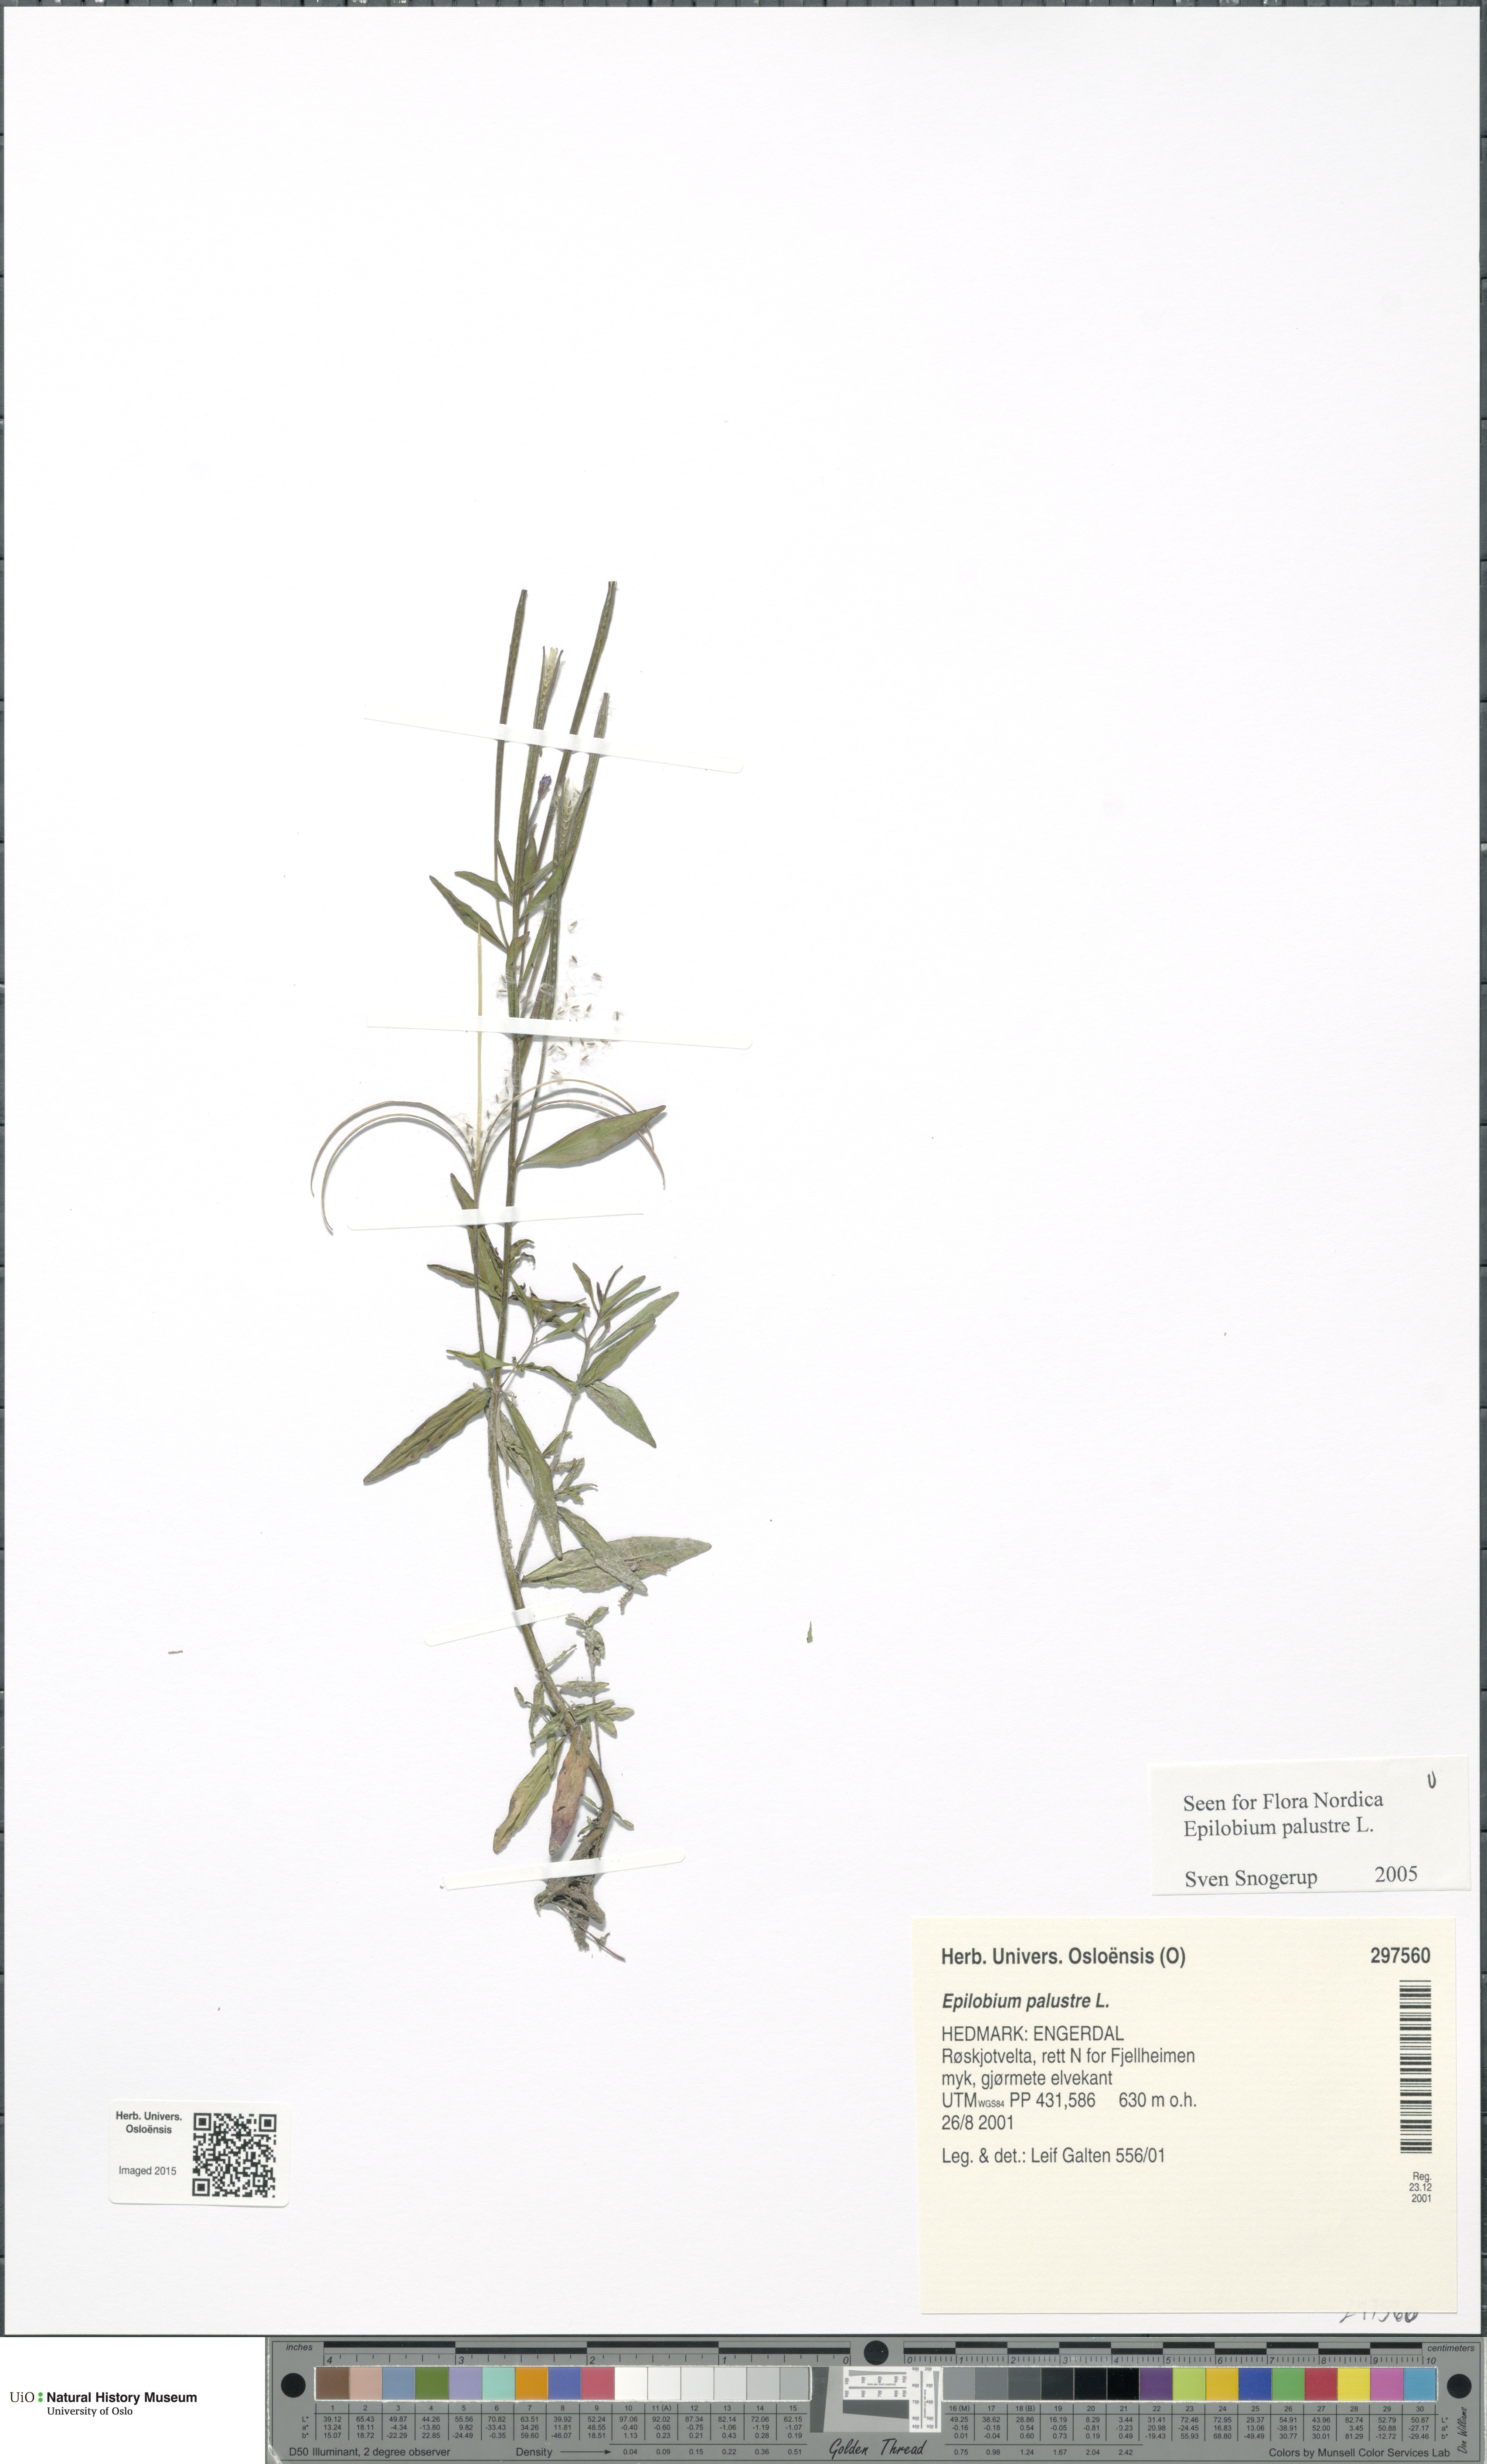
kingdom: Plantae
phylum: Tracheophyta
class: Magnoliopsida
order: Myrtales
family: Onagraceae
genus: Epilobium
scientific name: Epilobium palustre
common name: Marsh willowherb
